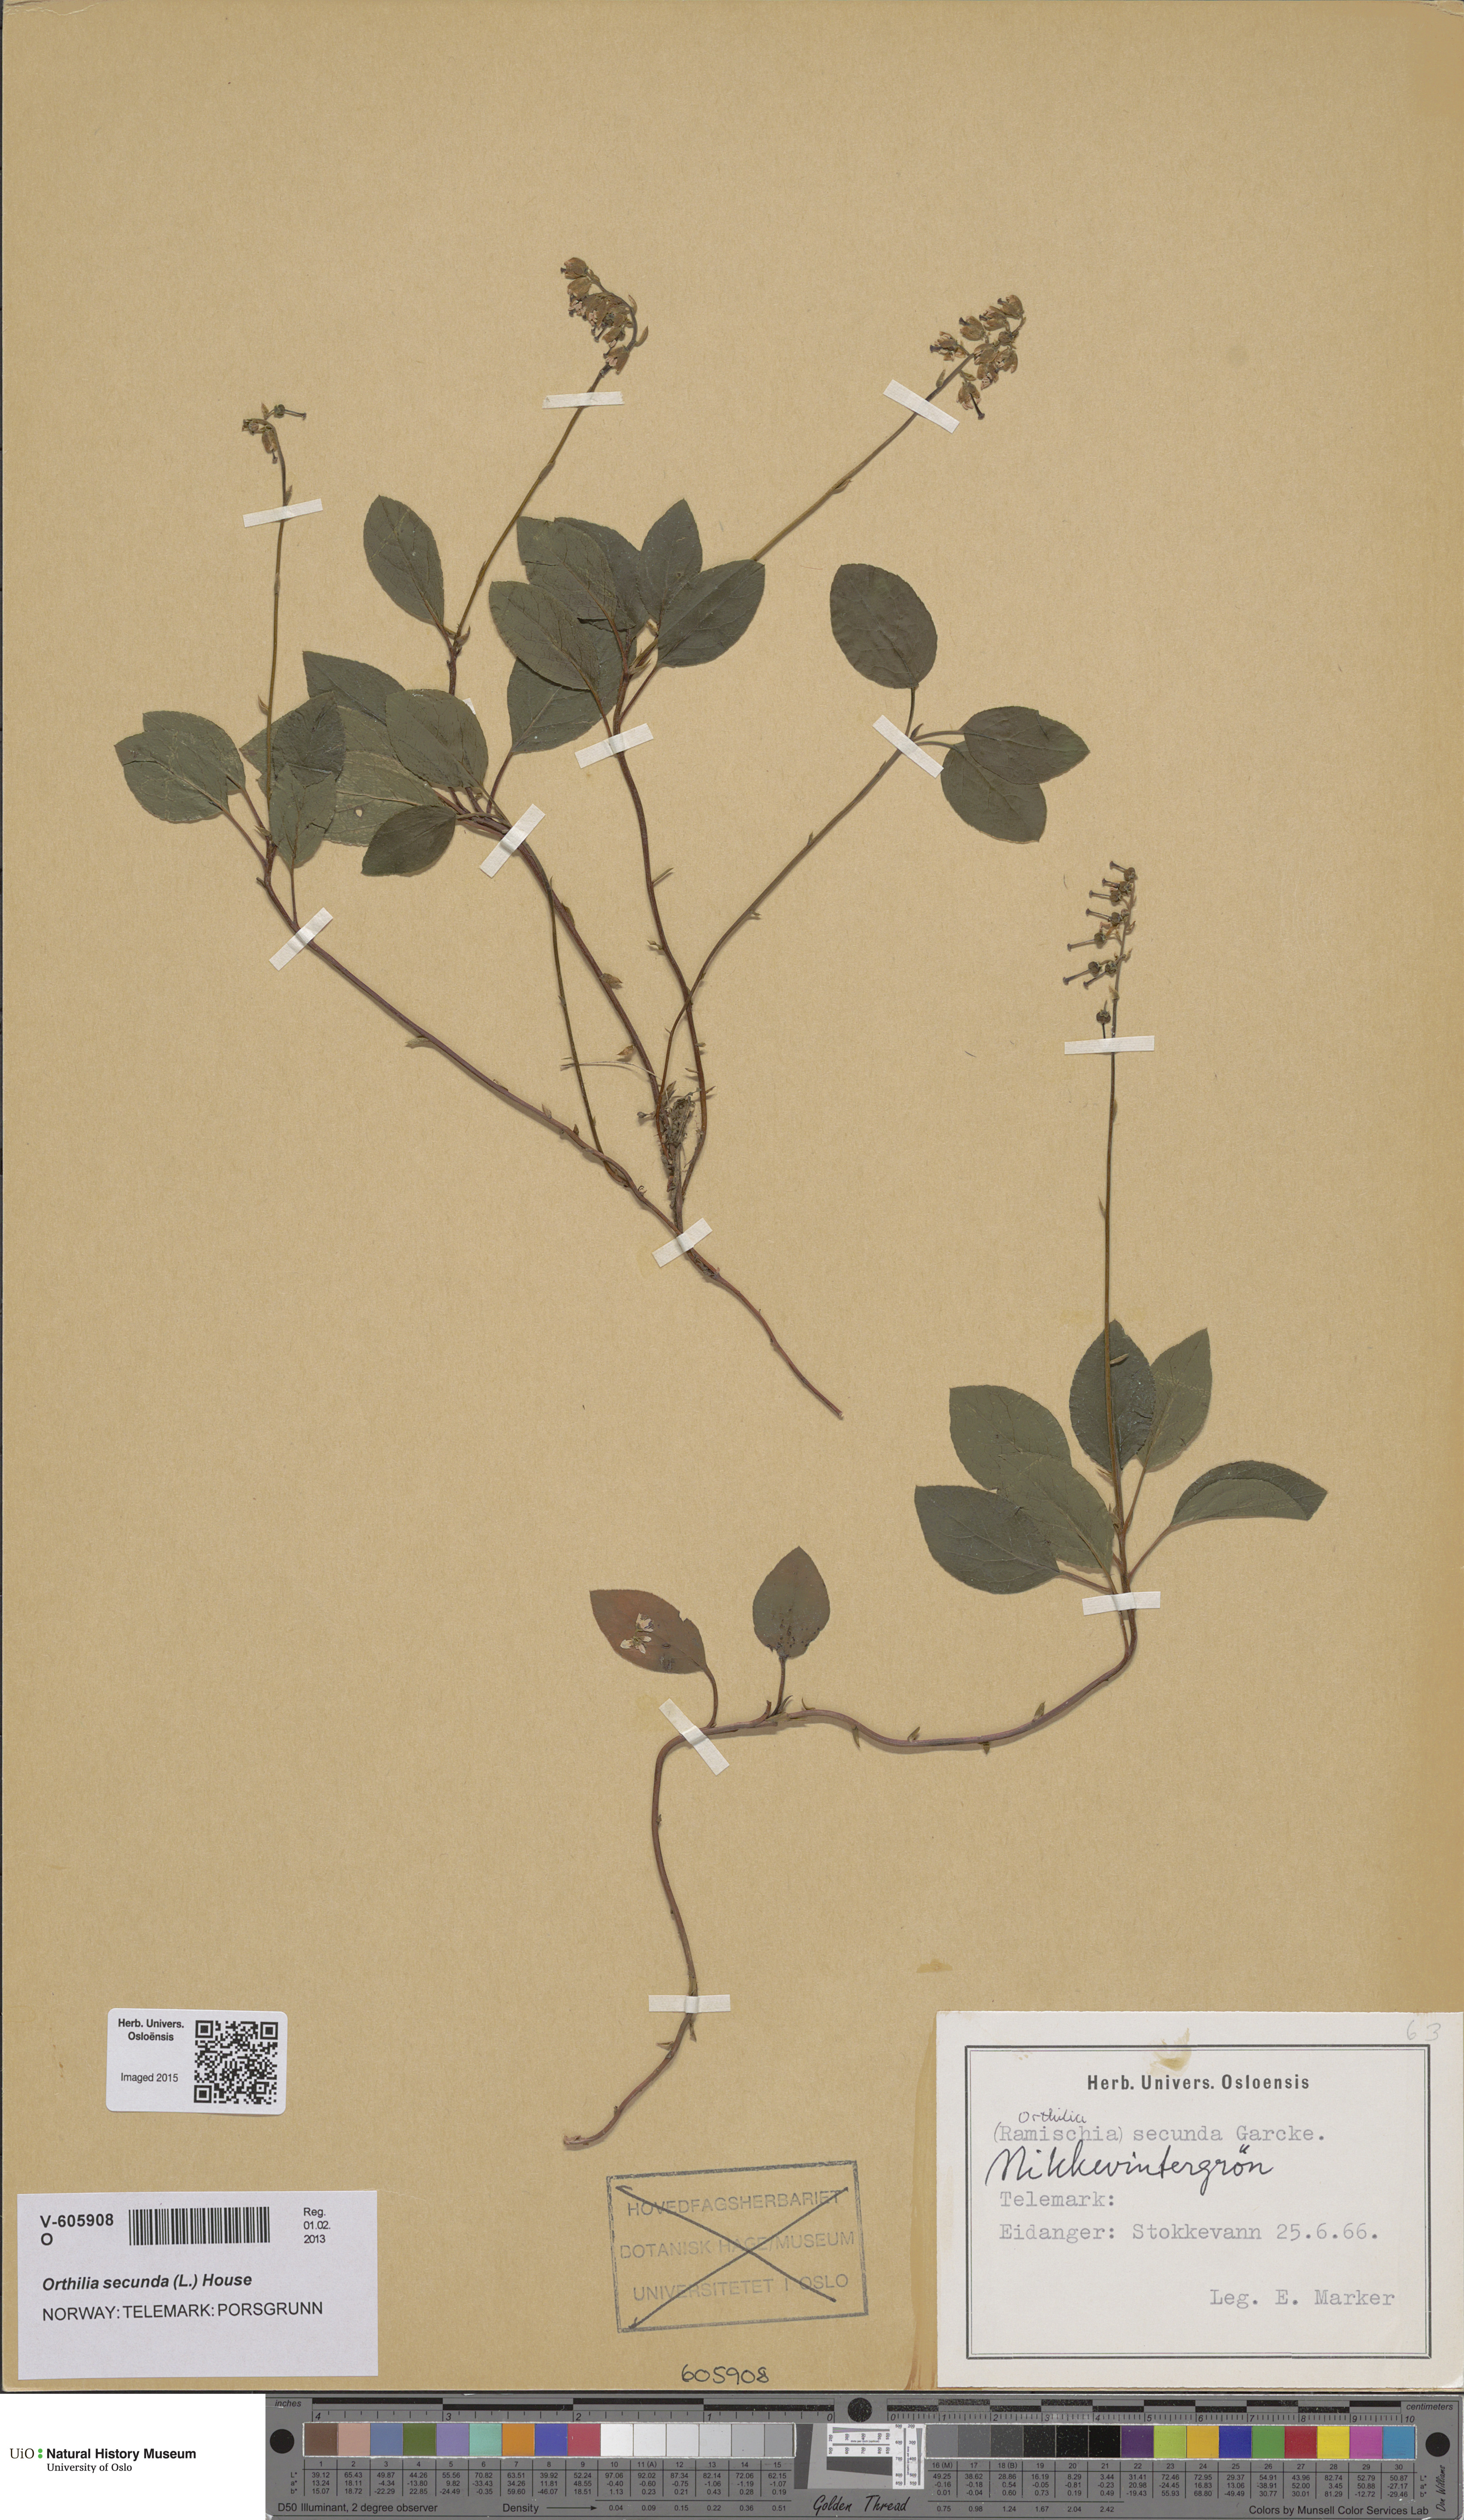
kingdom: Plantae
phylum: Tracheophyta
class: Magnoliopsida
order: Ericales
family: Ericaceae
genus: Orthilia
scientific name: Orthilia secunda
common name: One-sided orthilia
